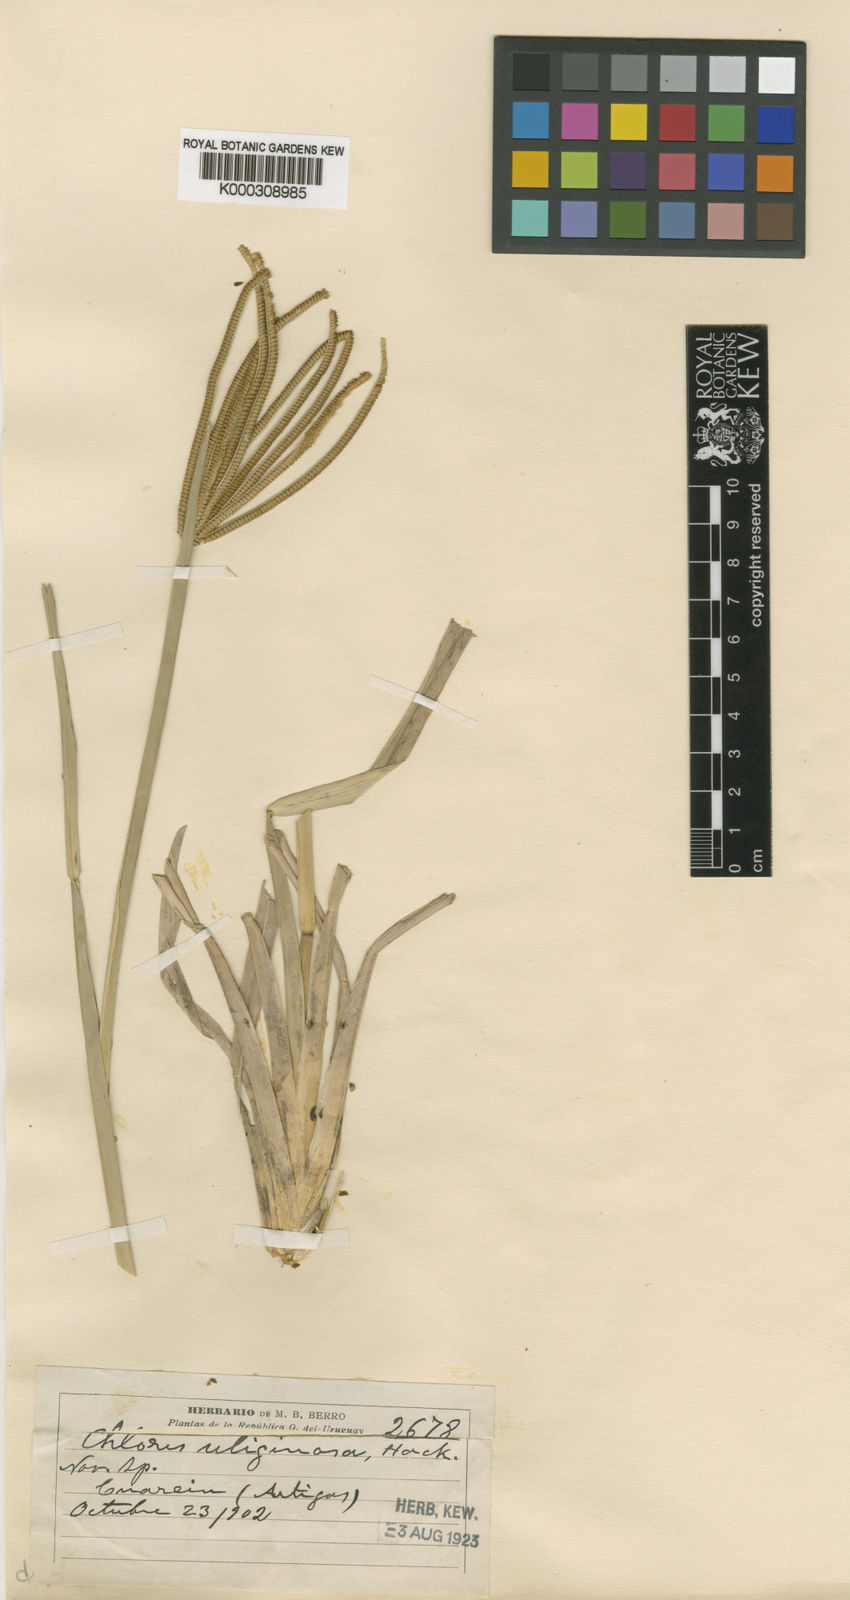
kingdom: Plantae
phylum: Tracheophyta
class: Liliopsida
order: Poales
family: Poaceae
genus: Eustachys
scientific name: Eustachys uliginosa
